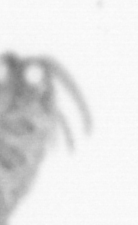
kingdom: Animalia
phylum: Annelida
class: Polychaeta
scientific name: Polychaeta
